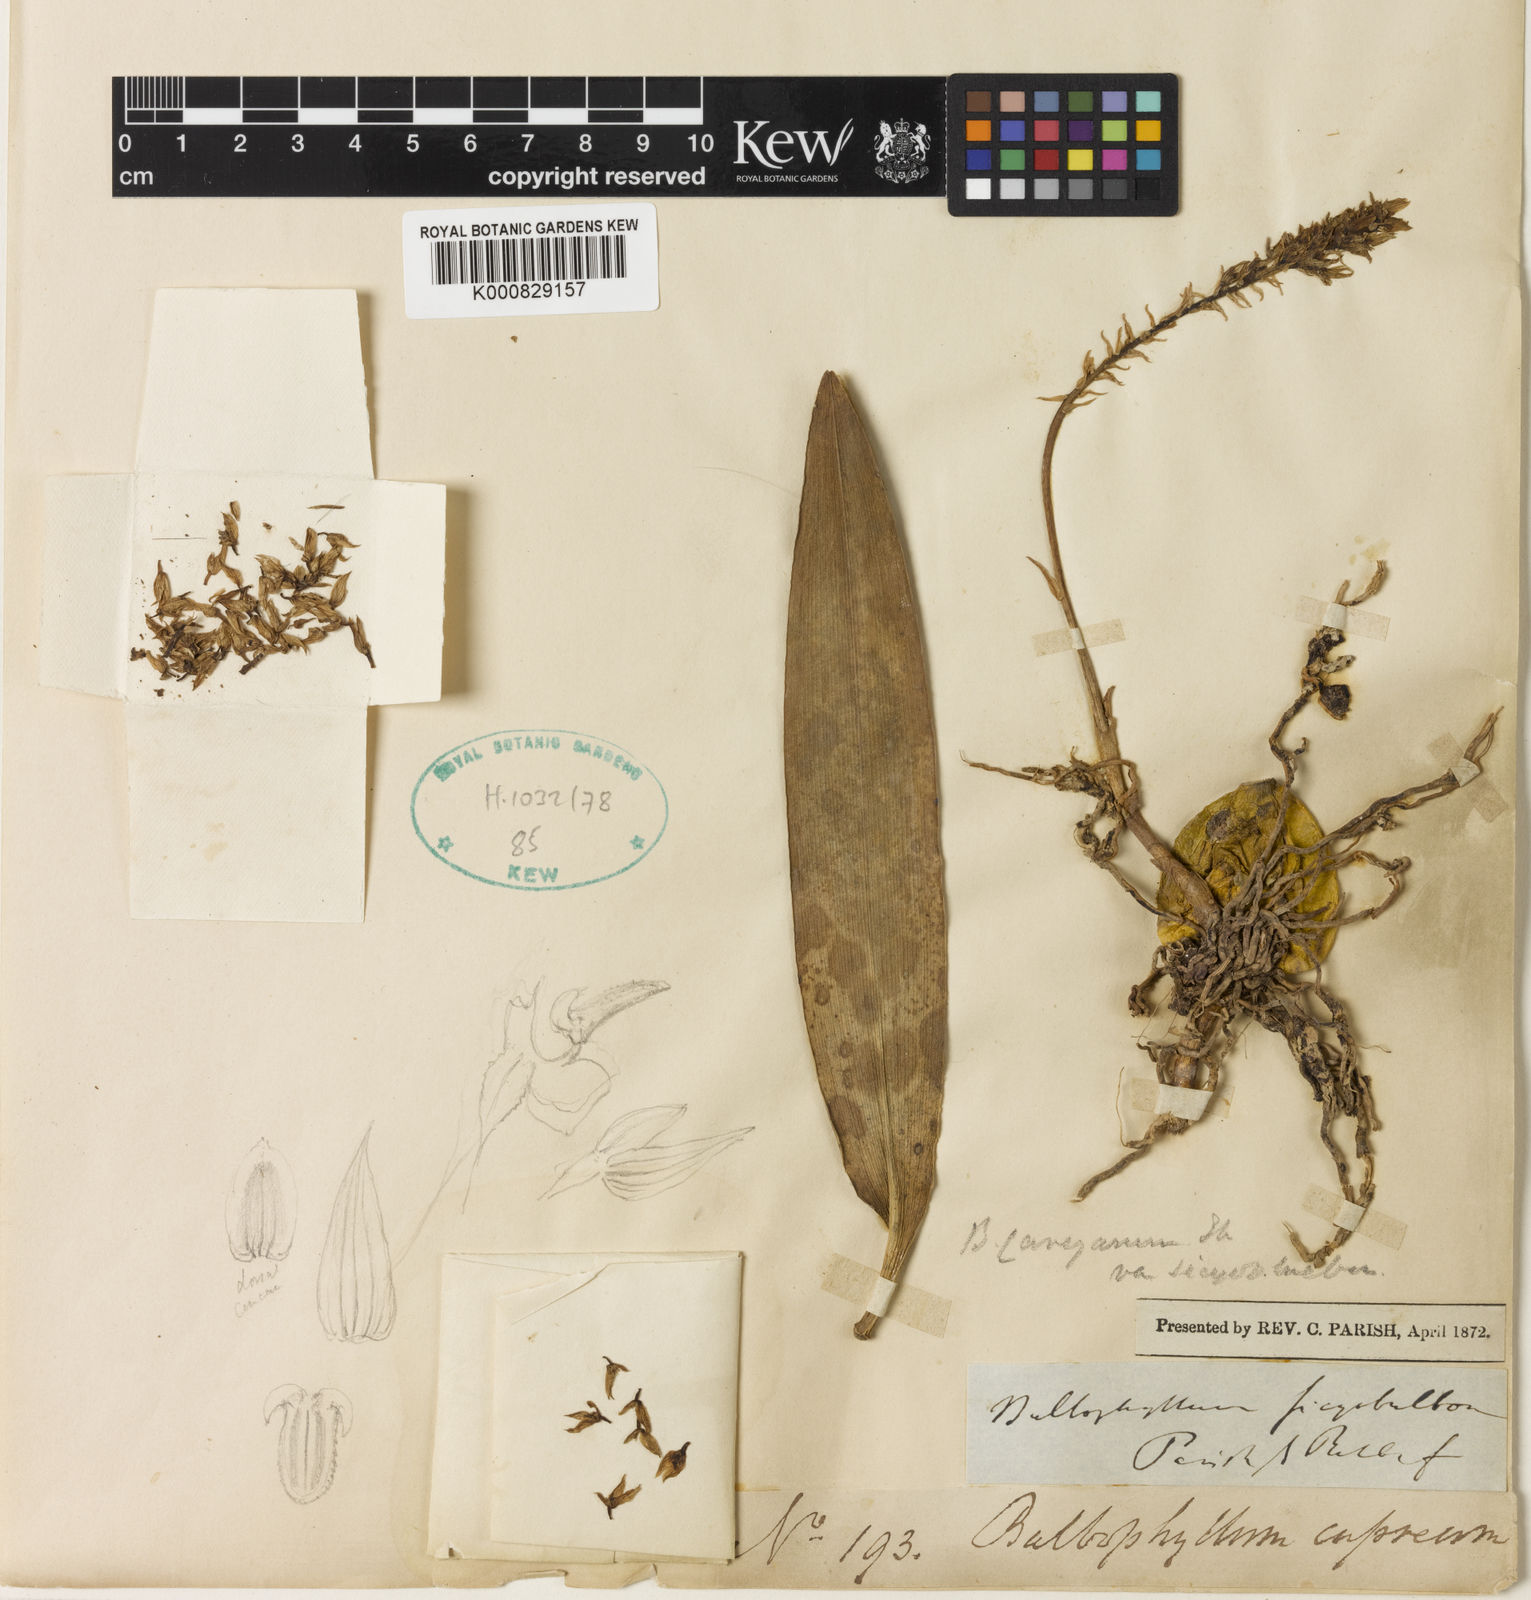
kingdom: Plantae
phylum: Tracheophyta
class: Liliopsida
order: Asparagales
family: Orchidaceae
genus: Bulbophyllum
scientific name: Bulbophyllum sicyobulbon
